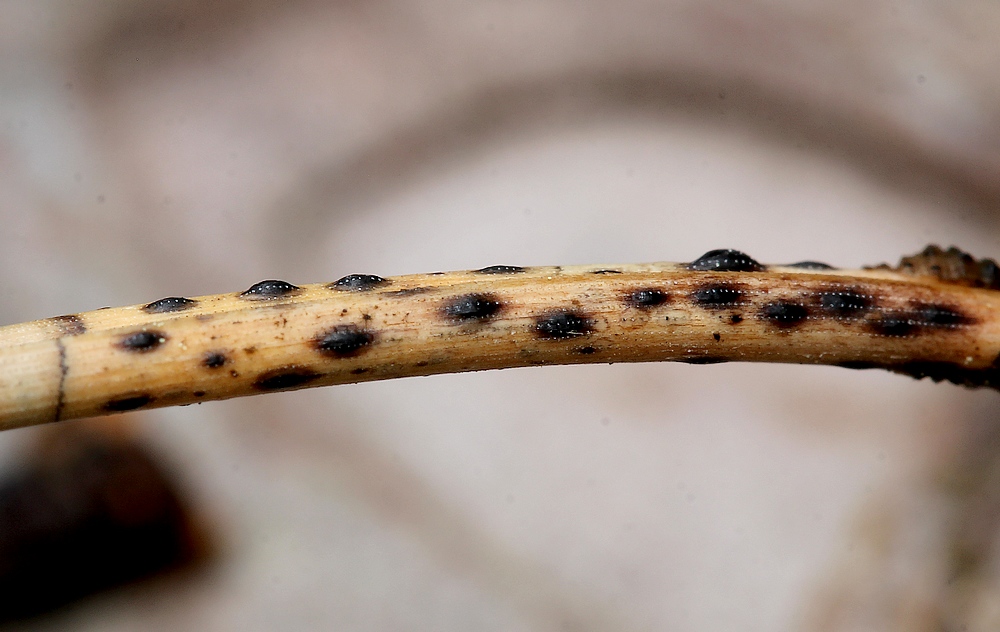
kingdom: Fungi
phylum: Ascomycota
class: Leotiomycetes
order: Rhytismatales
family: Rhytismataceae
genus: Lophodermium
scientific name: Lophodermium pinastri
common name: fyrre-fureplet
